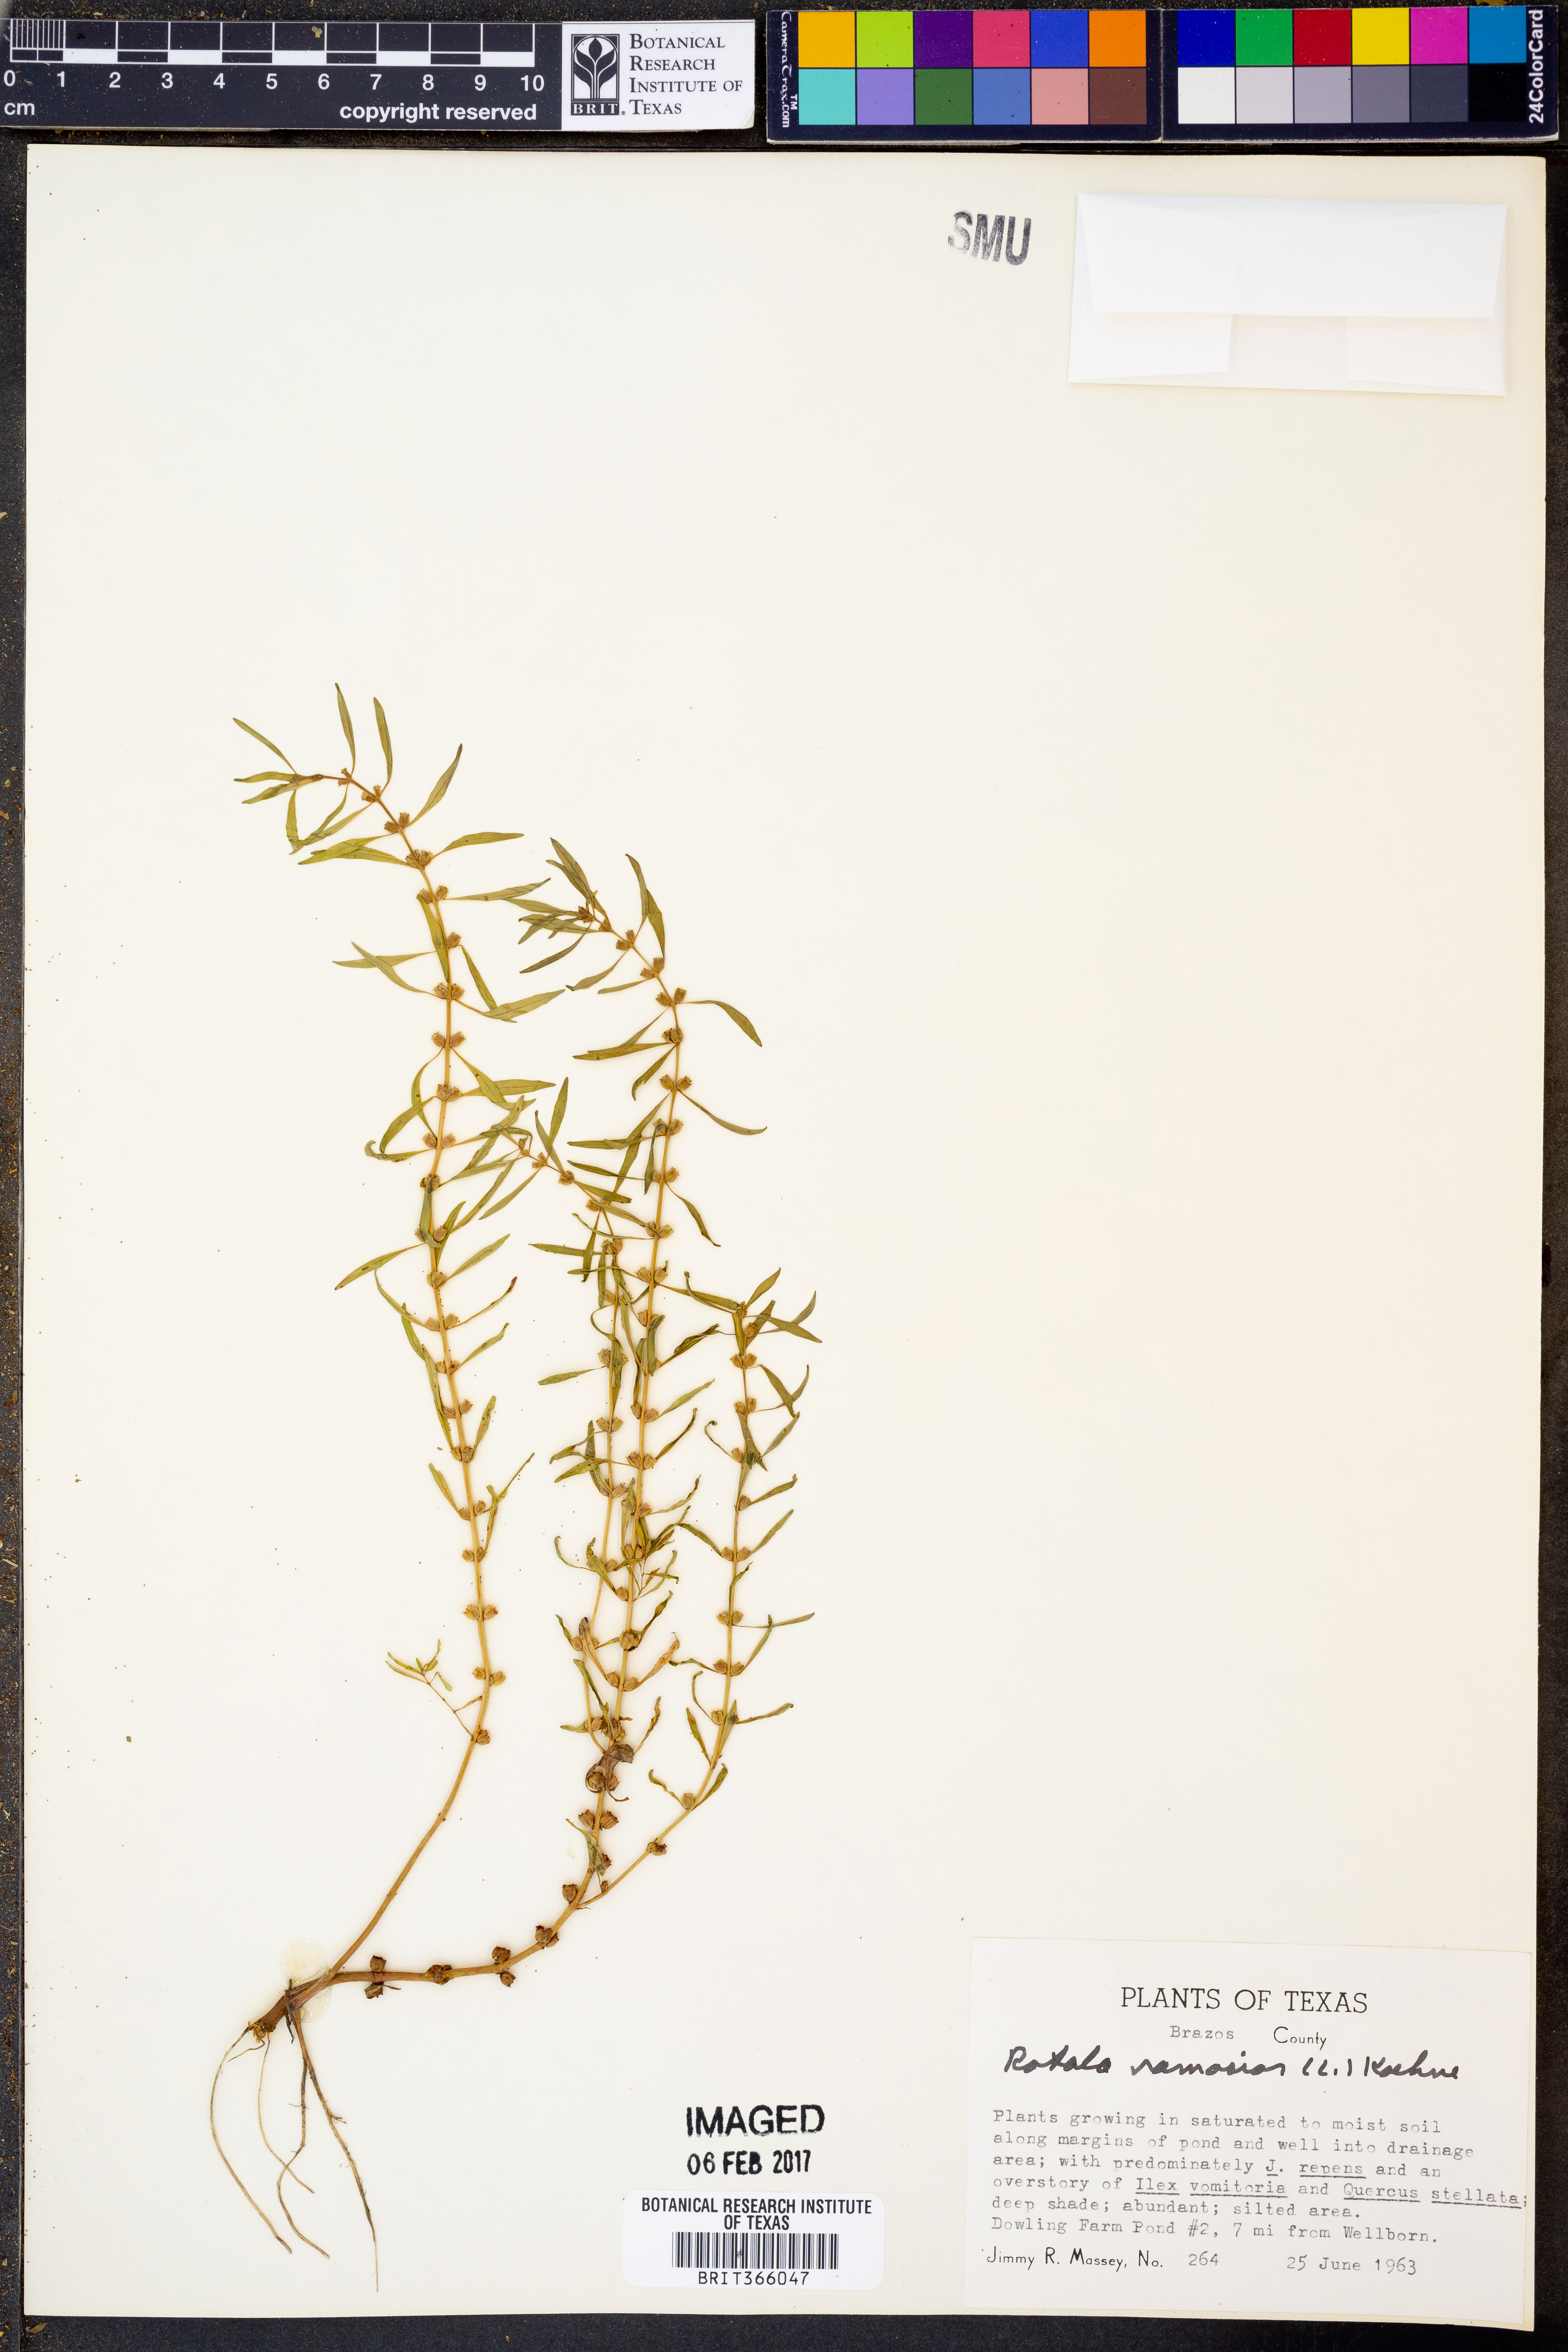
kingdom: Plantae
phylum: Tracheophyta
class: Magnoliopsida
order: Myrtales
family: Lythraceae
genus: Rotala
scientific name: Rotala ramosior
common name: Lowland rotala
